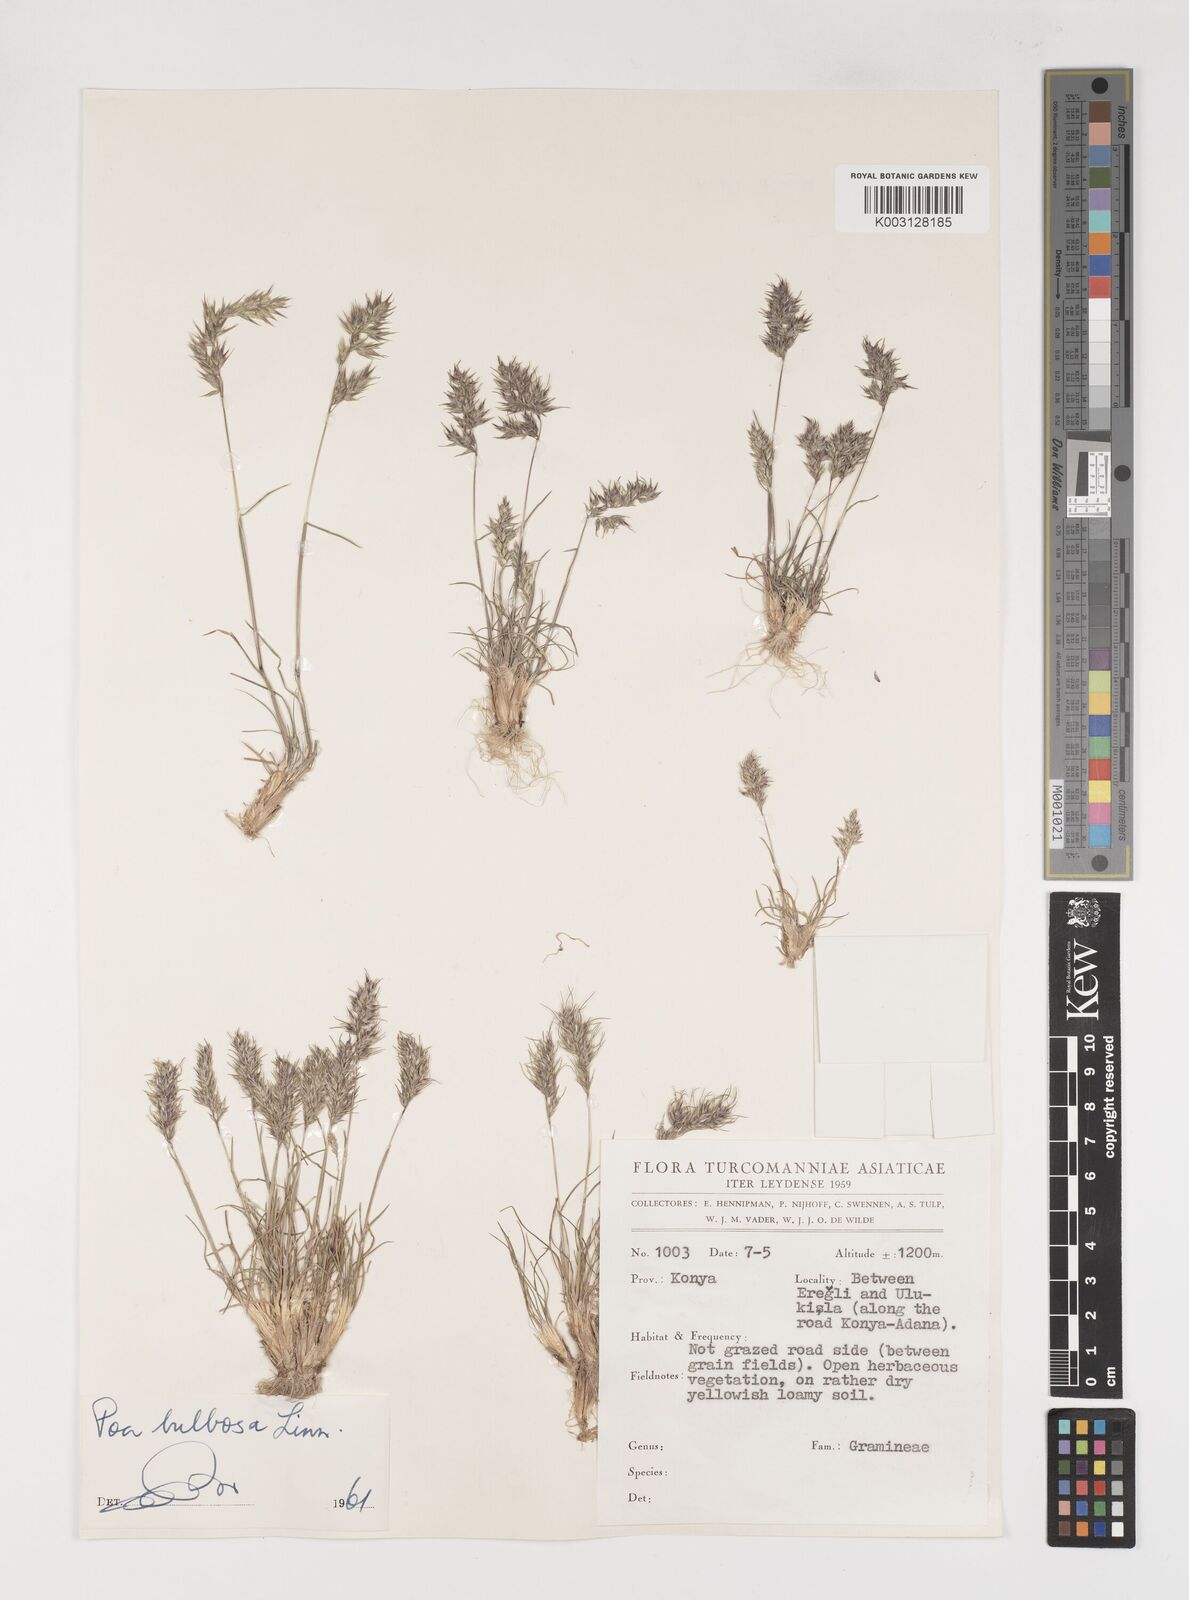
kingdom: Plantae
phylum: Tracheophyta
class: Liliopsida
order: Poales
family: Poaceae
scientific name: Poaceae
